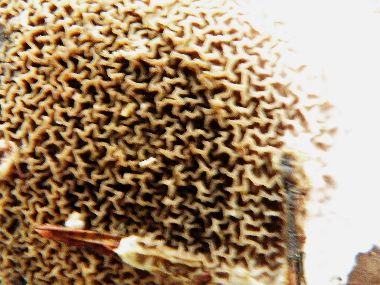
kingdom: Fungi
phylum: Basidiomycota
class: Agaricomycetes
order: Boletales
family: Serpulaceae
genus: Serpula
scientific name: Serpula himantioides
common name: tyndkødet hussvamp
